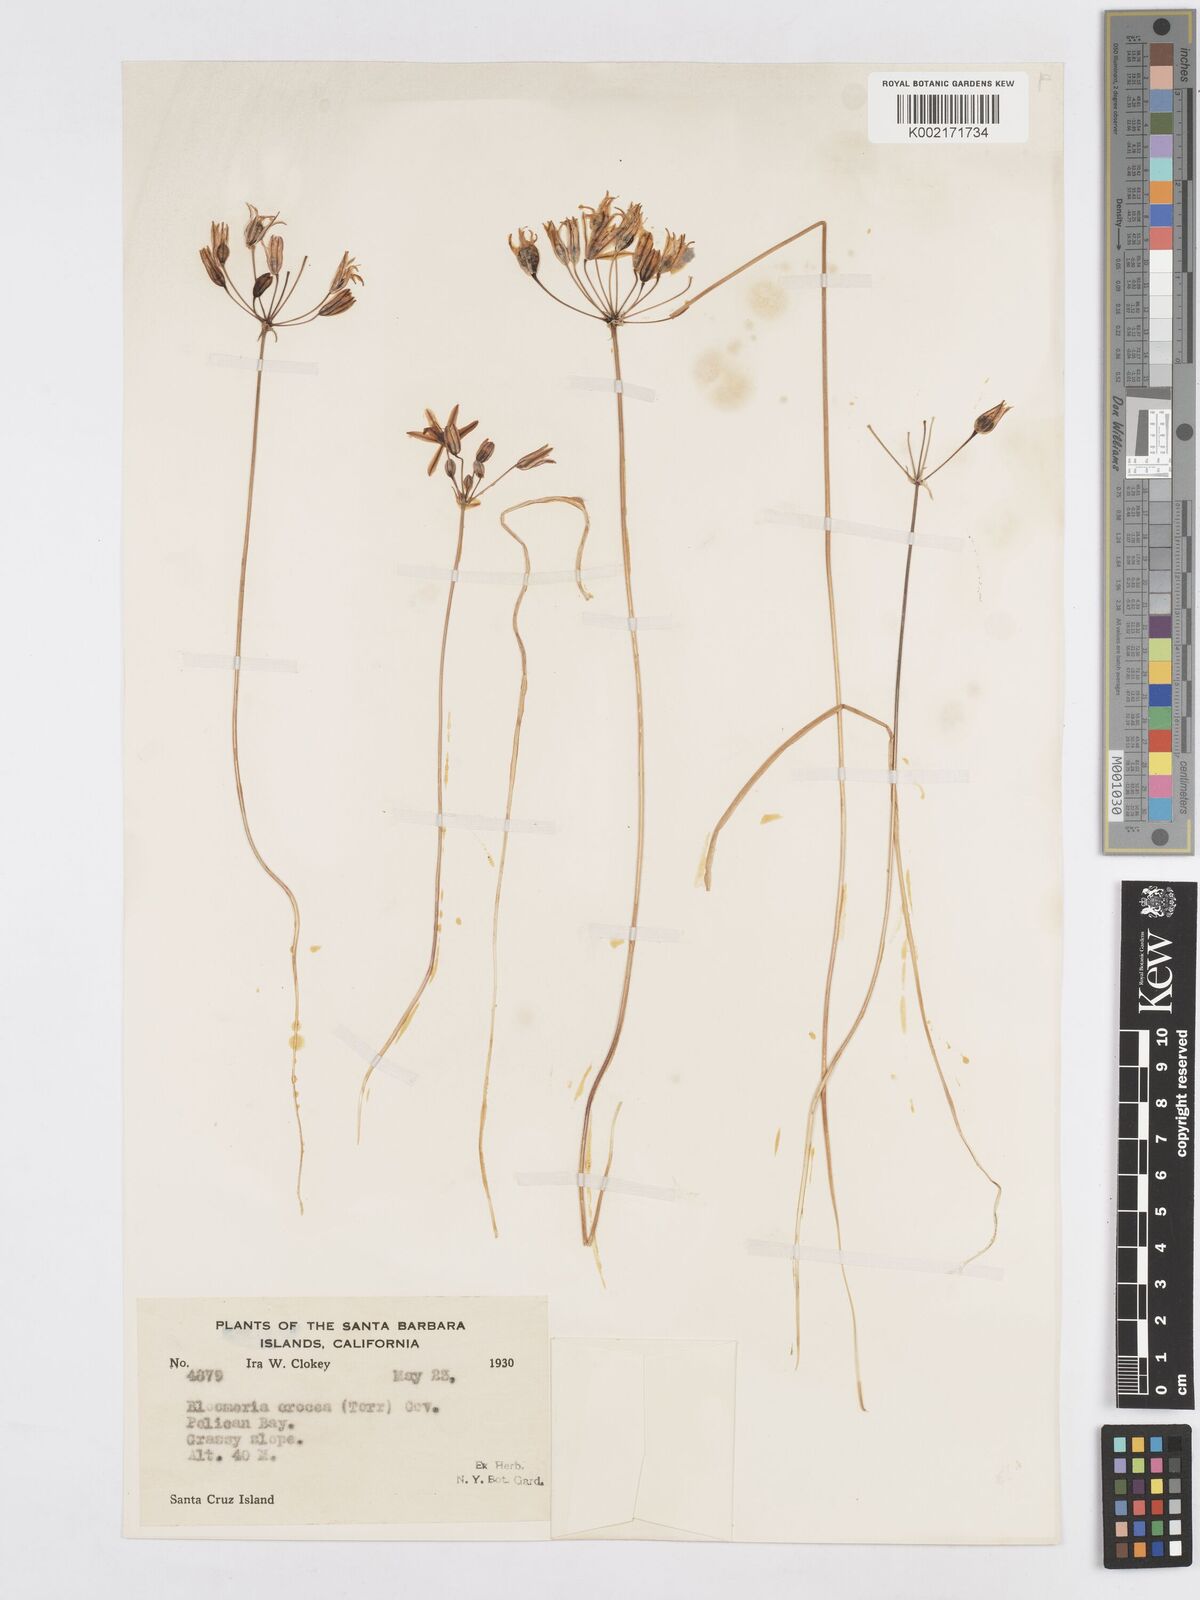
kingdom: Plantae
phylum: Tracheophyta
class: Liliopsida
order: Asparagales
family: Asparagaceae
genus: Triteleia
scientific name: Triteleia crocea
